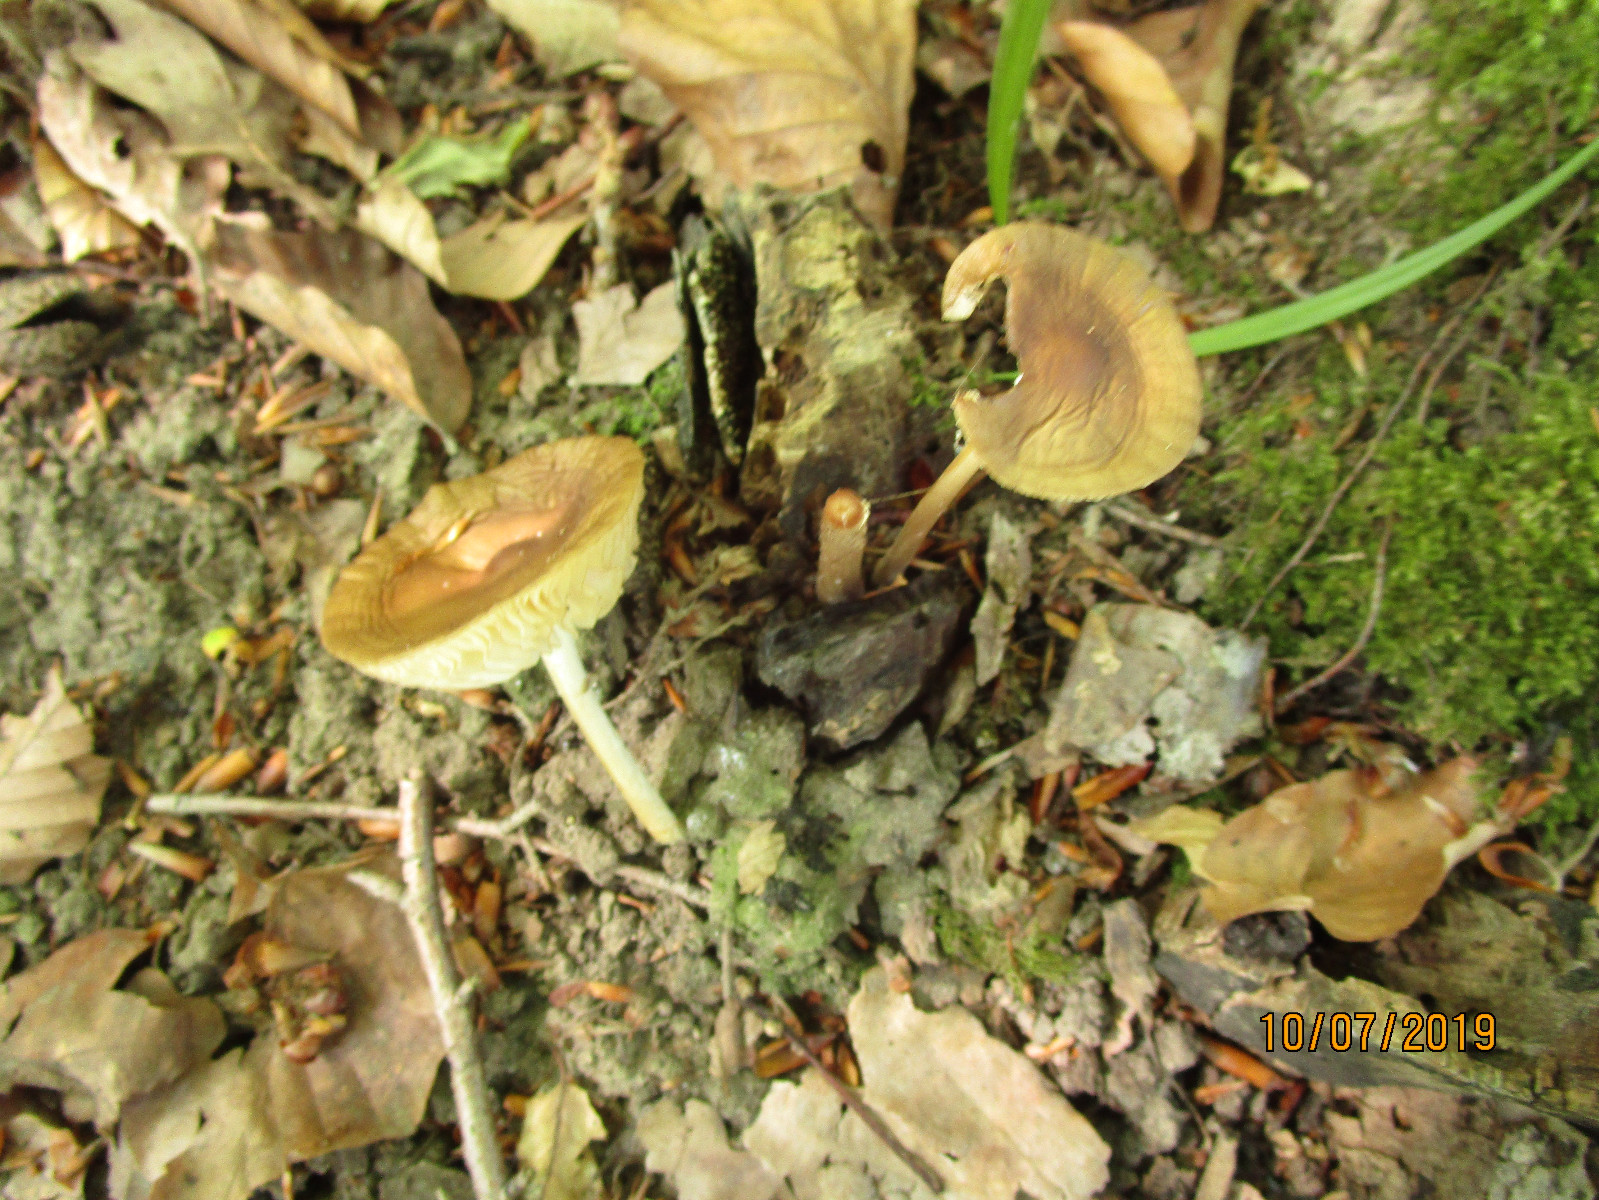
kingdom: Fungi
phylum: Basidiomycota
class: Agaricomycetes
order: Agaricales
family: Physalacriaceae
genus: Hymenopellis
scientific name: Hymenopellis radicata
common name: almindelig pælerodshat
